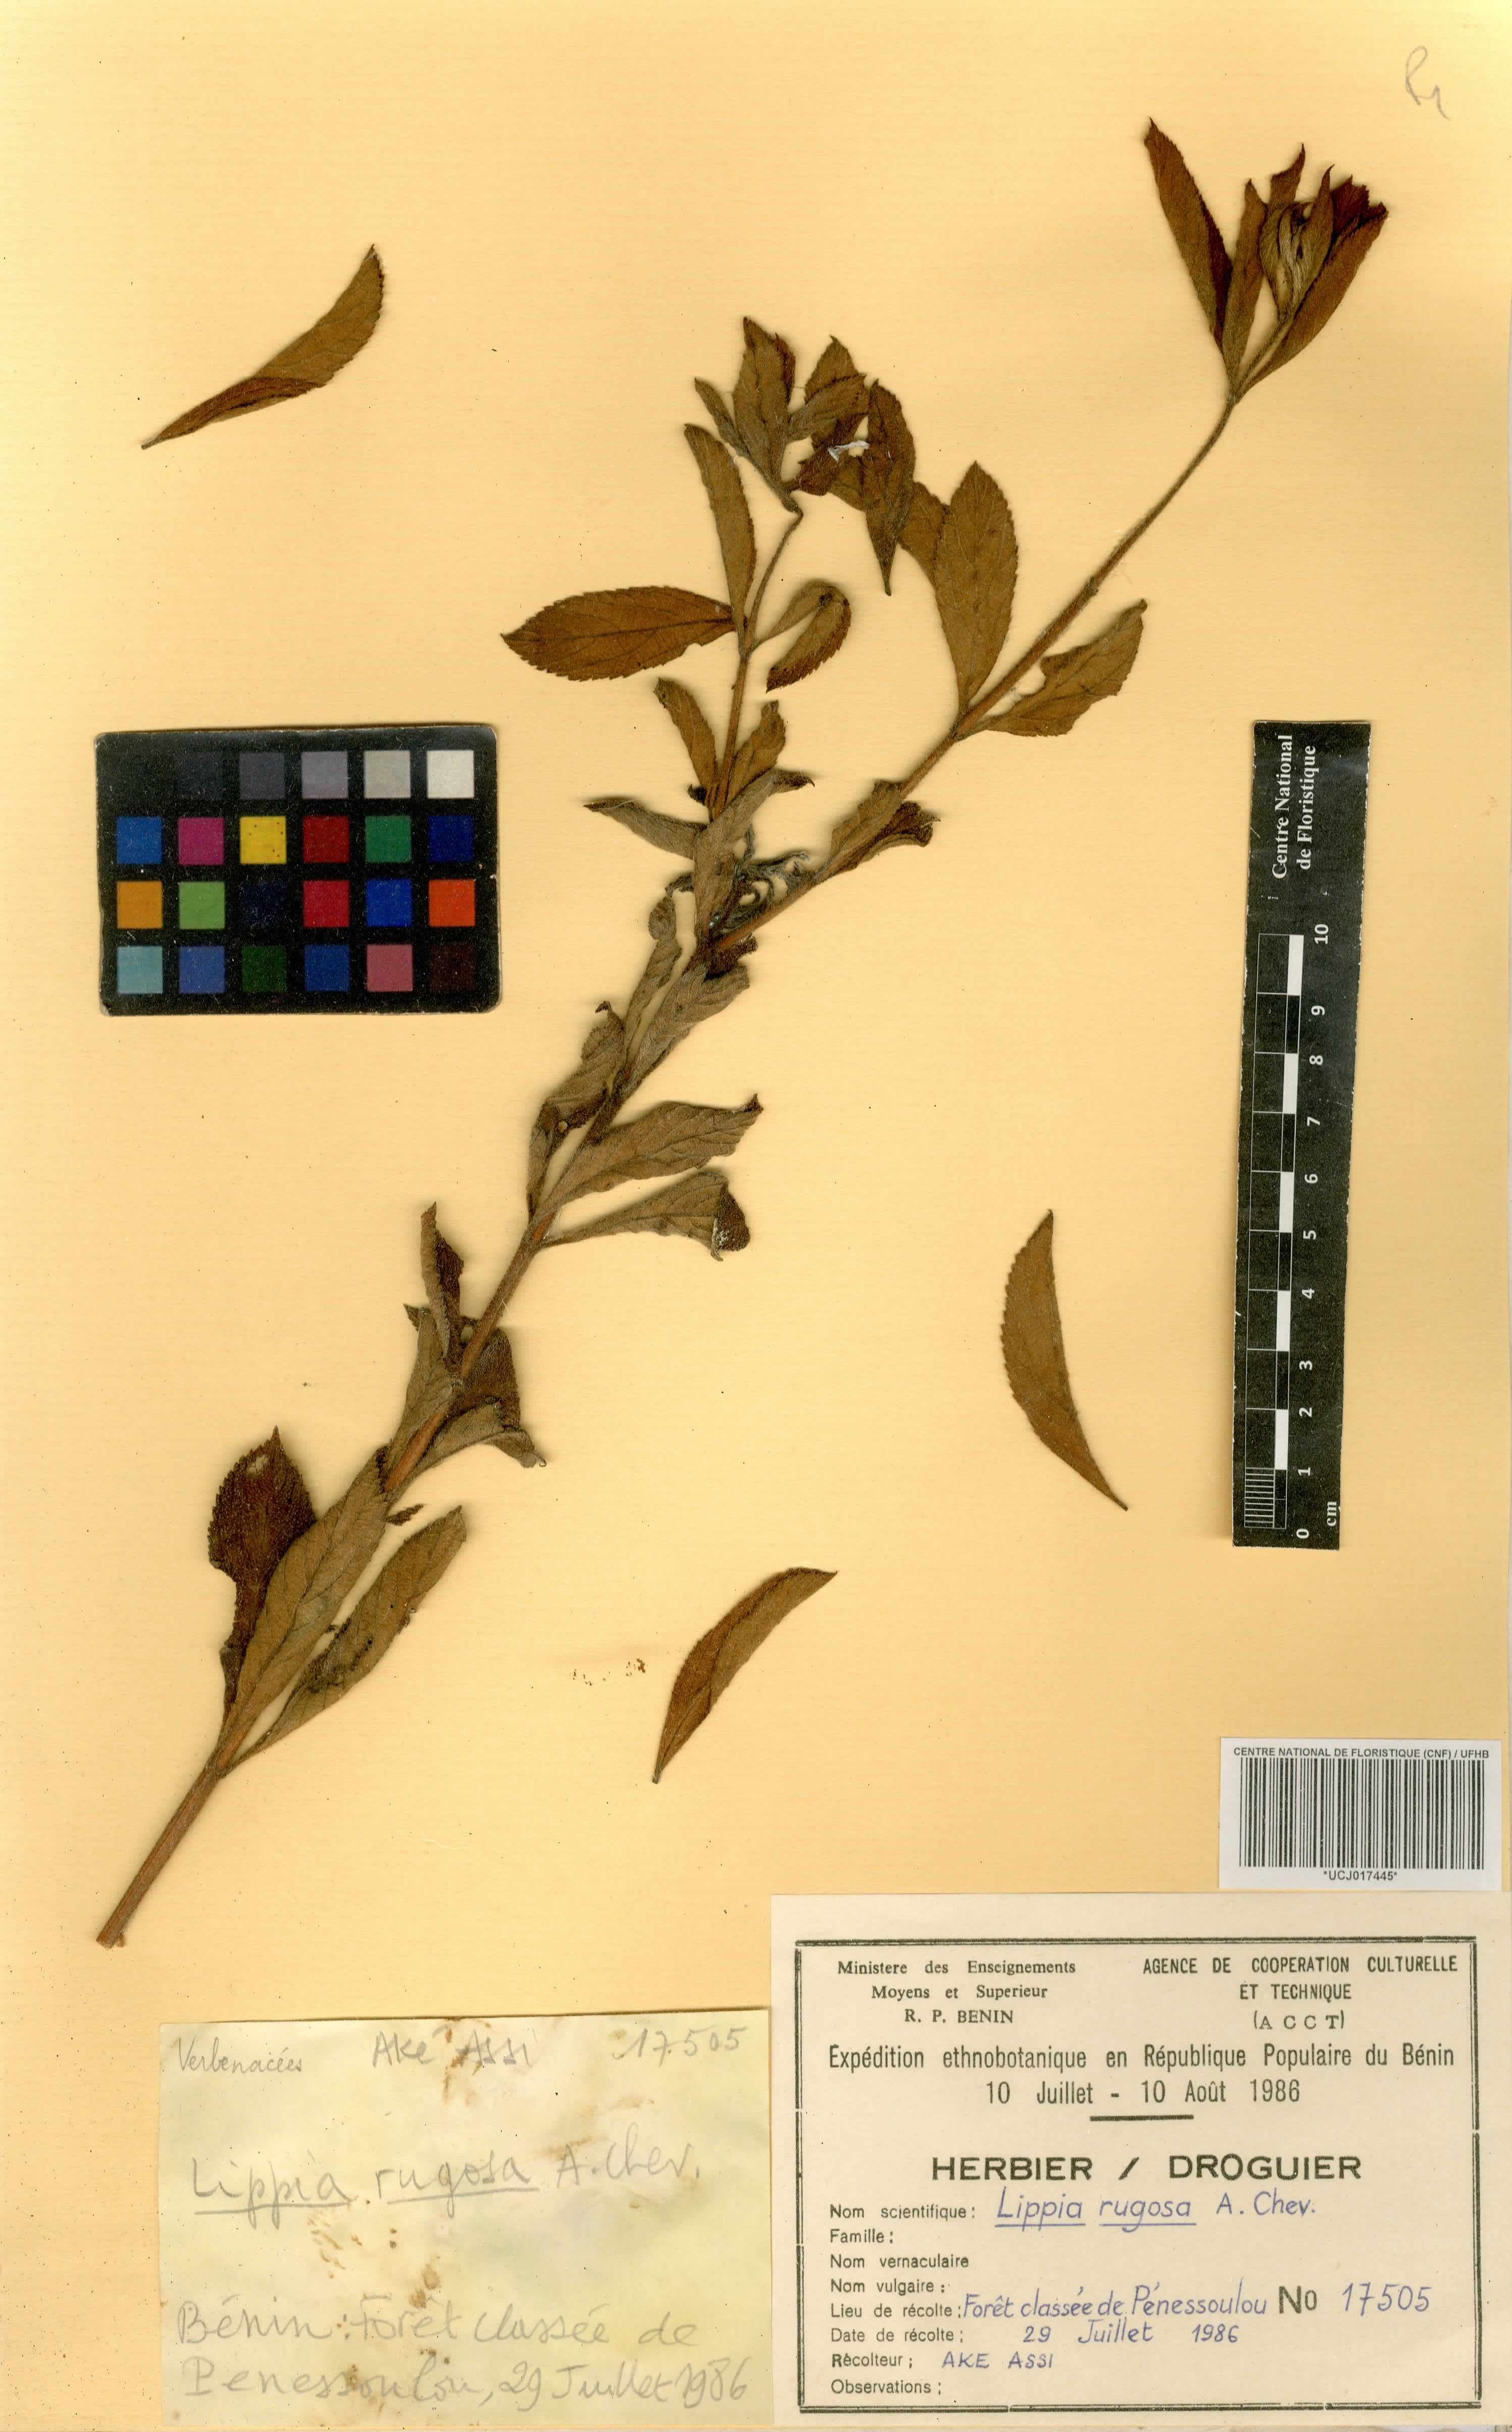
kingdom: Plantae
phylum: Tracheophyta
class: Magnoliopsida
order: Lamiales
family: Verbenaceae
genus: Lippia
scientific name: Lippia rugosa
